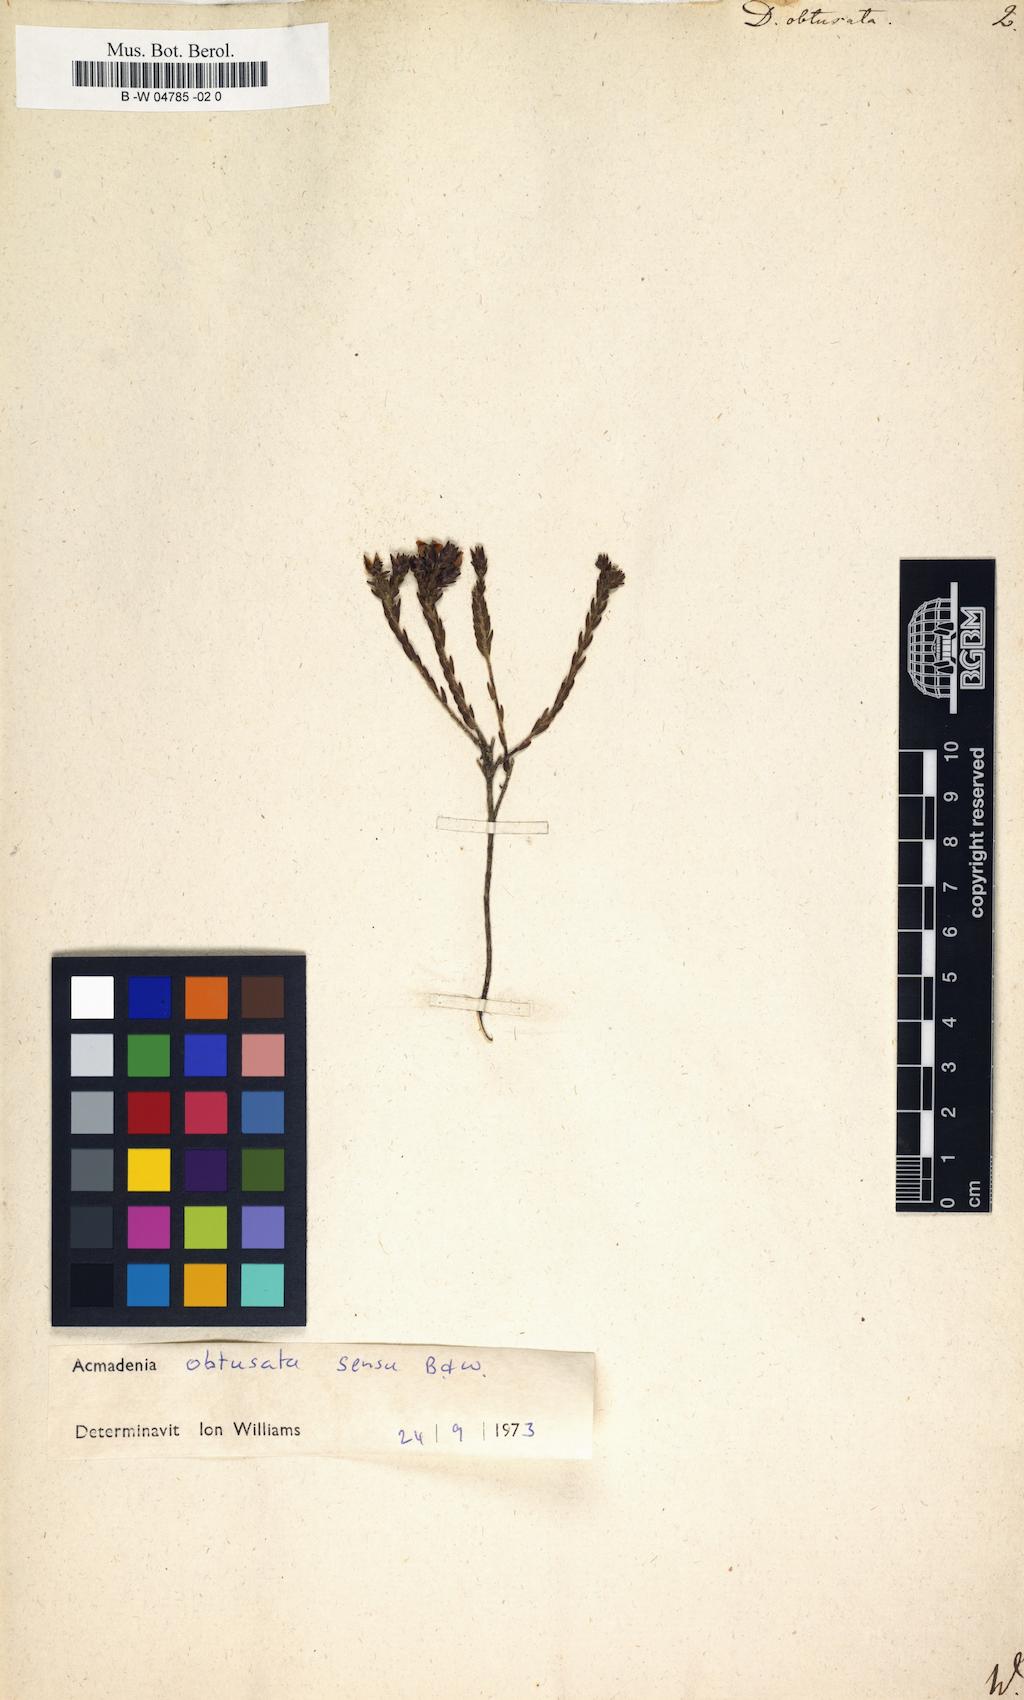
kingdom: Plantae
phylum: Tracheophyta
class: Magnoliopsida
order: Sapindales
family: Rutaceae
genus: Acmadenia
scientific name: Acmadenia obtusata
